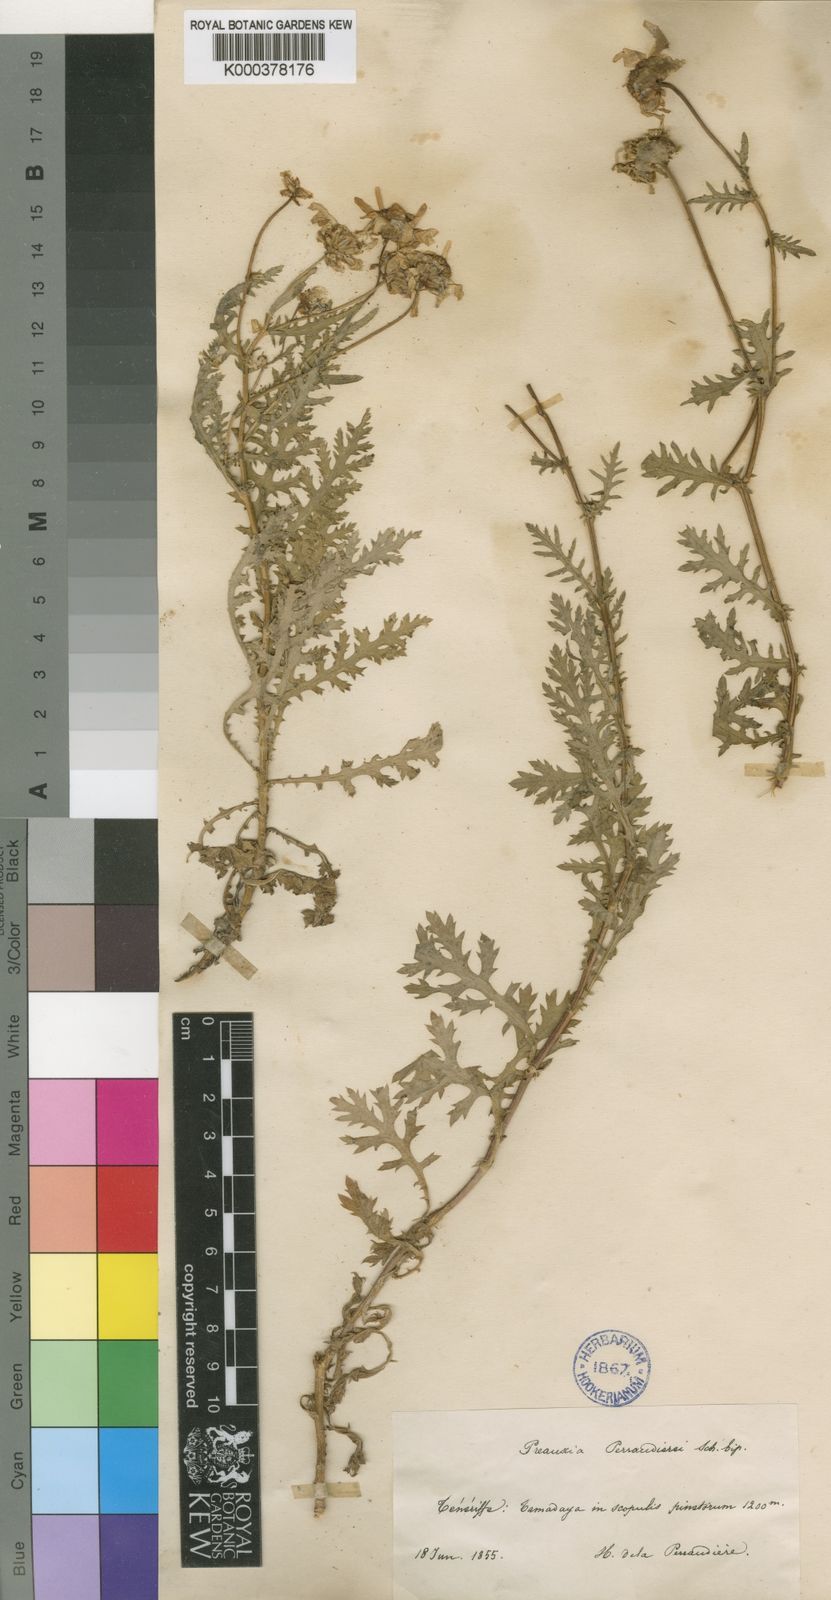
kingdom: Plantae
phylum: Tracheophyta
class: Magnoliopsida
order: Asterales
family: Asteraceae
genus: Argyranthemum
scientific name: Argyranthemum adauctum
